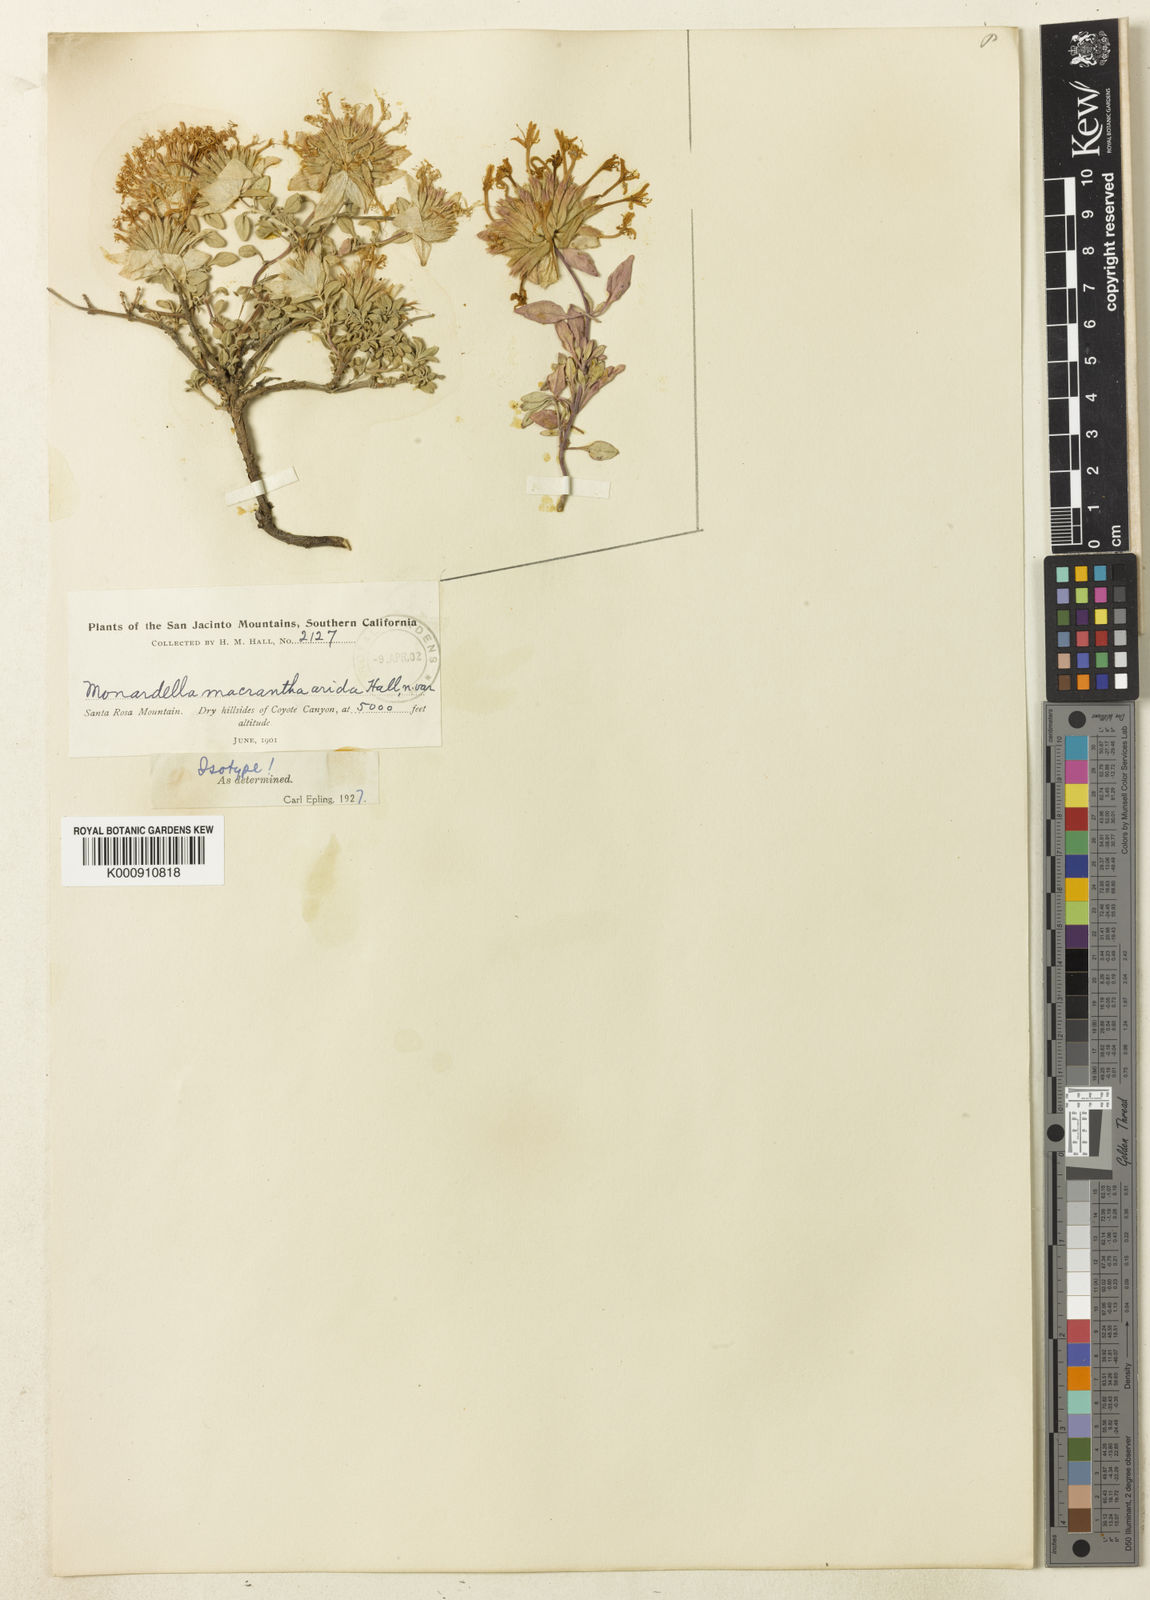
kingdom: Plantae
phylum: Tracheophyta
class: Magnoliopsida
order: Lamiales
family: Lamiaceae
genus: Monardella
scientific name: Monardella macrantha
